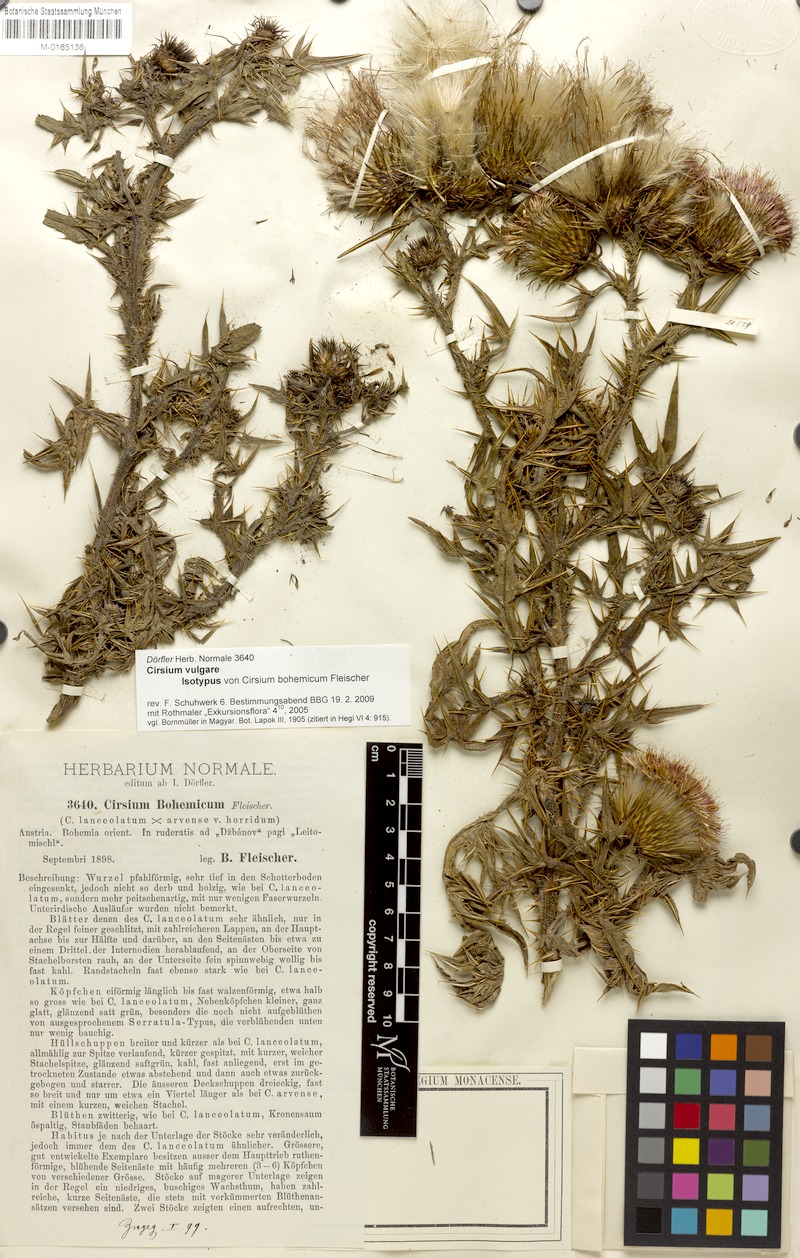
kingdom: Plantae
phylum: Tracheophyta
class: Magnoliopsida
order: Asterales
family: Asteraceae
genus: Cirsium
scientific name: Cirsium vulgare
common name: Bull thistle
